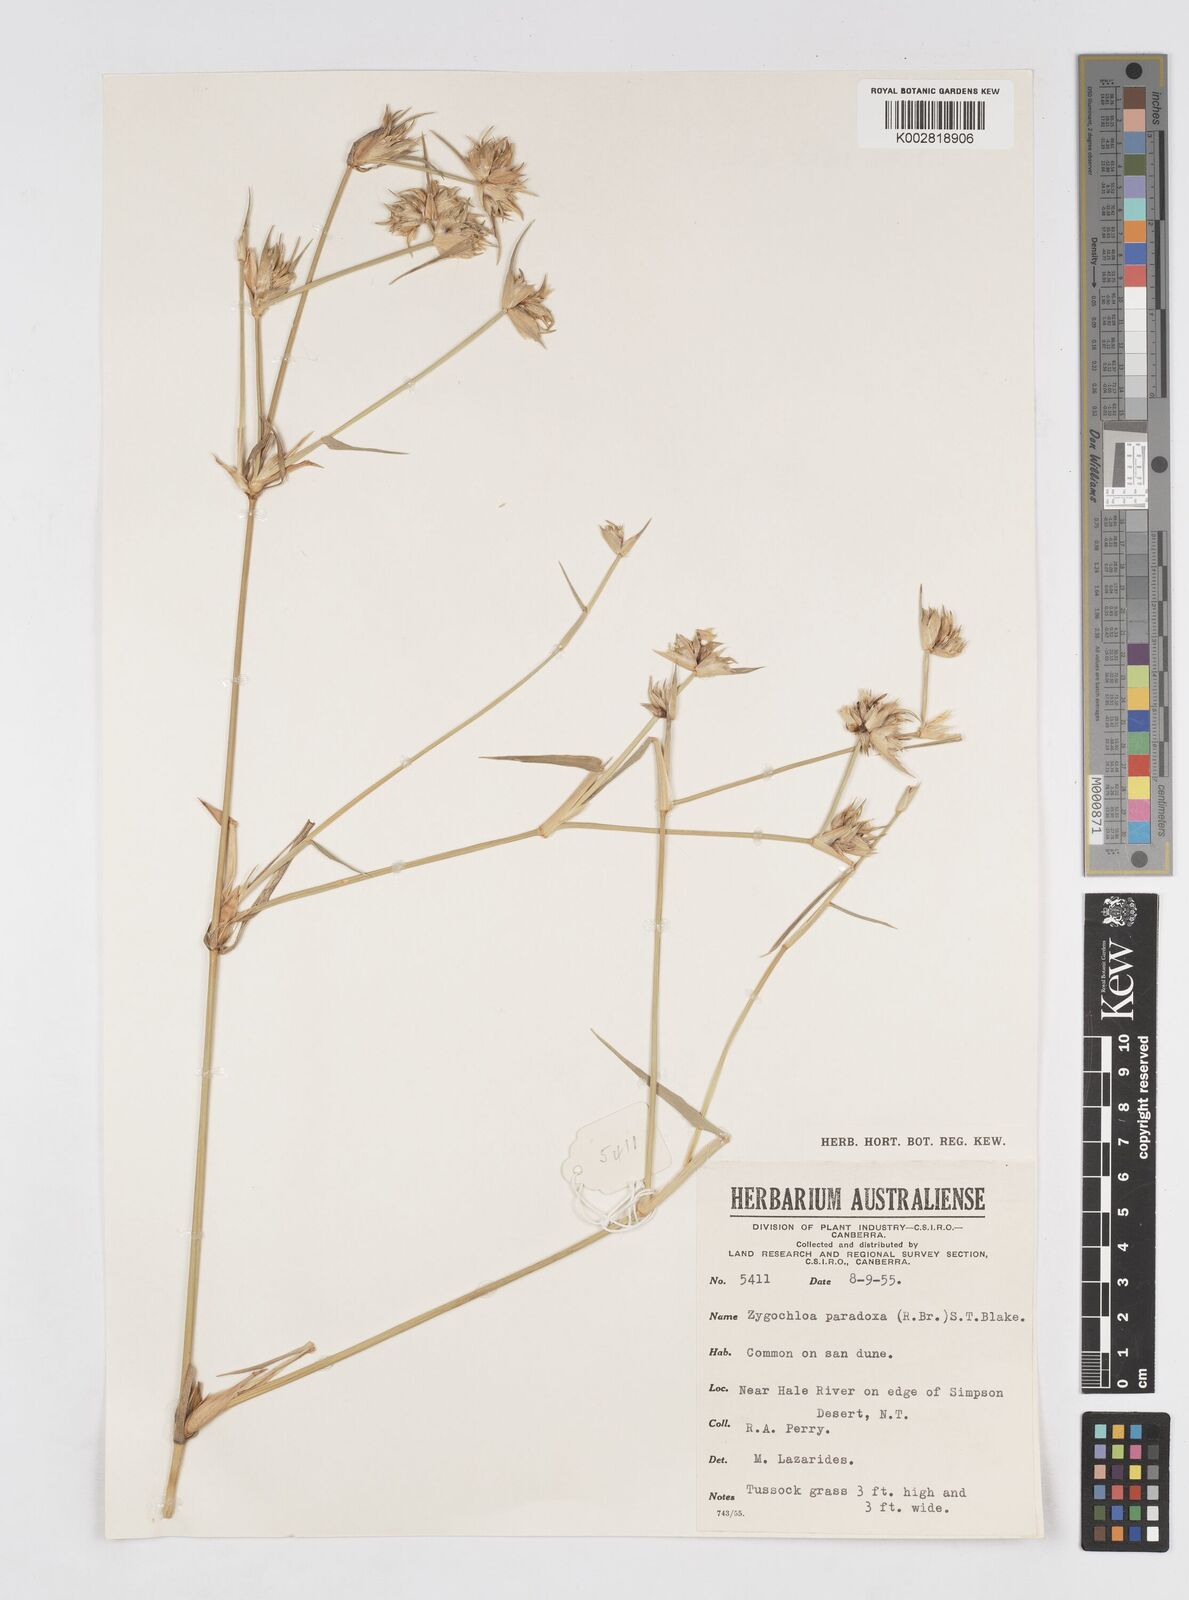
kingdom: Plantae
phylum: Tracheophyta
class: Liliopsida
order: Poales
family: Poaceae
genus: Zygochloa
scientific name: Zygochloa paradoxa
